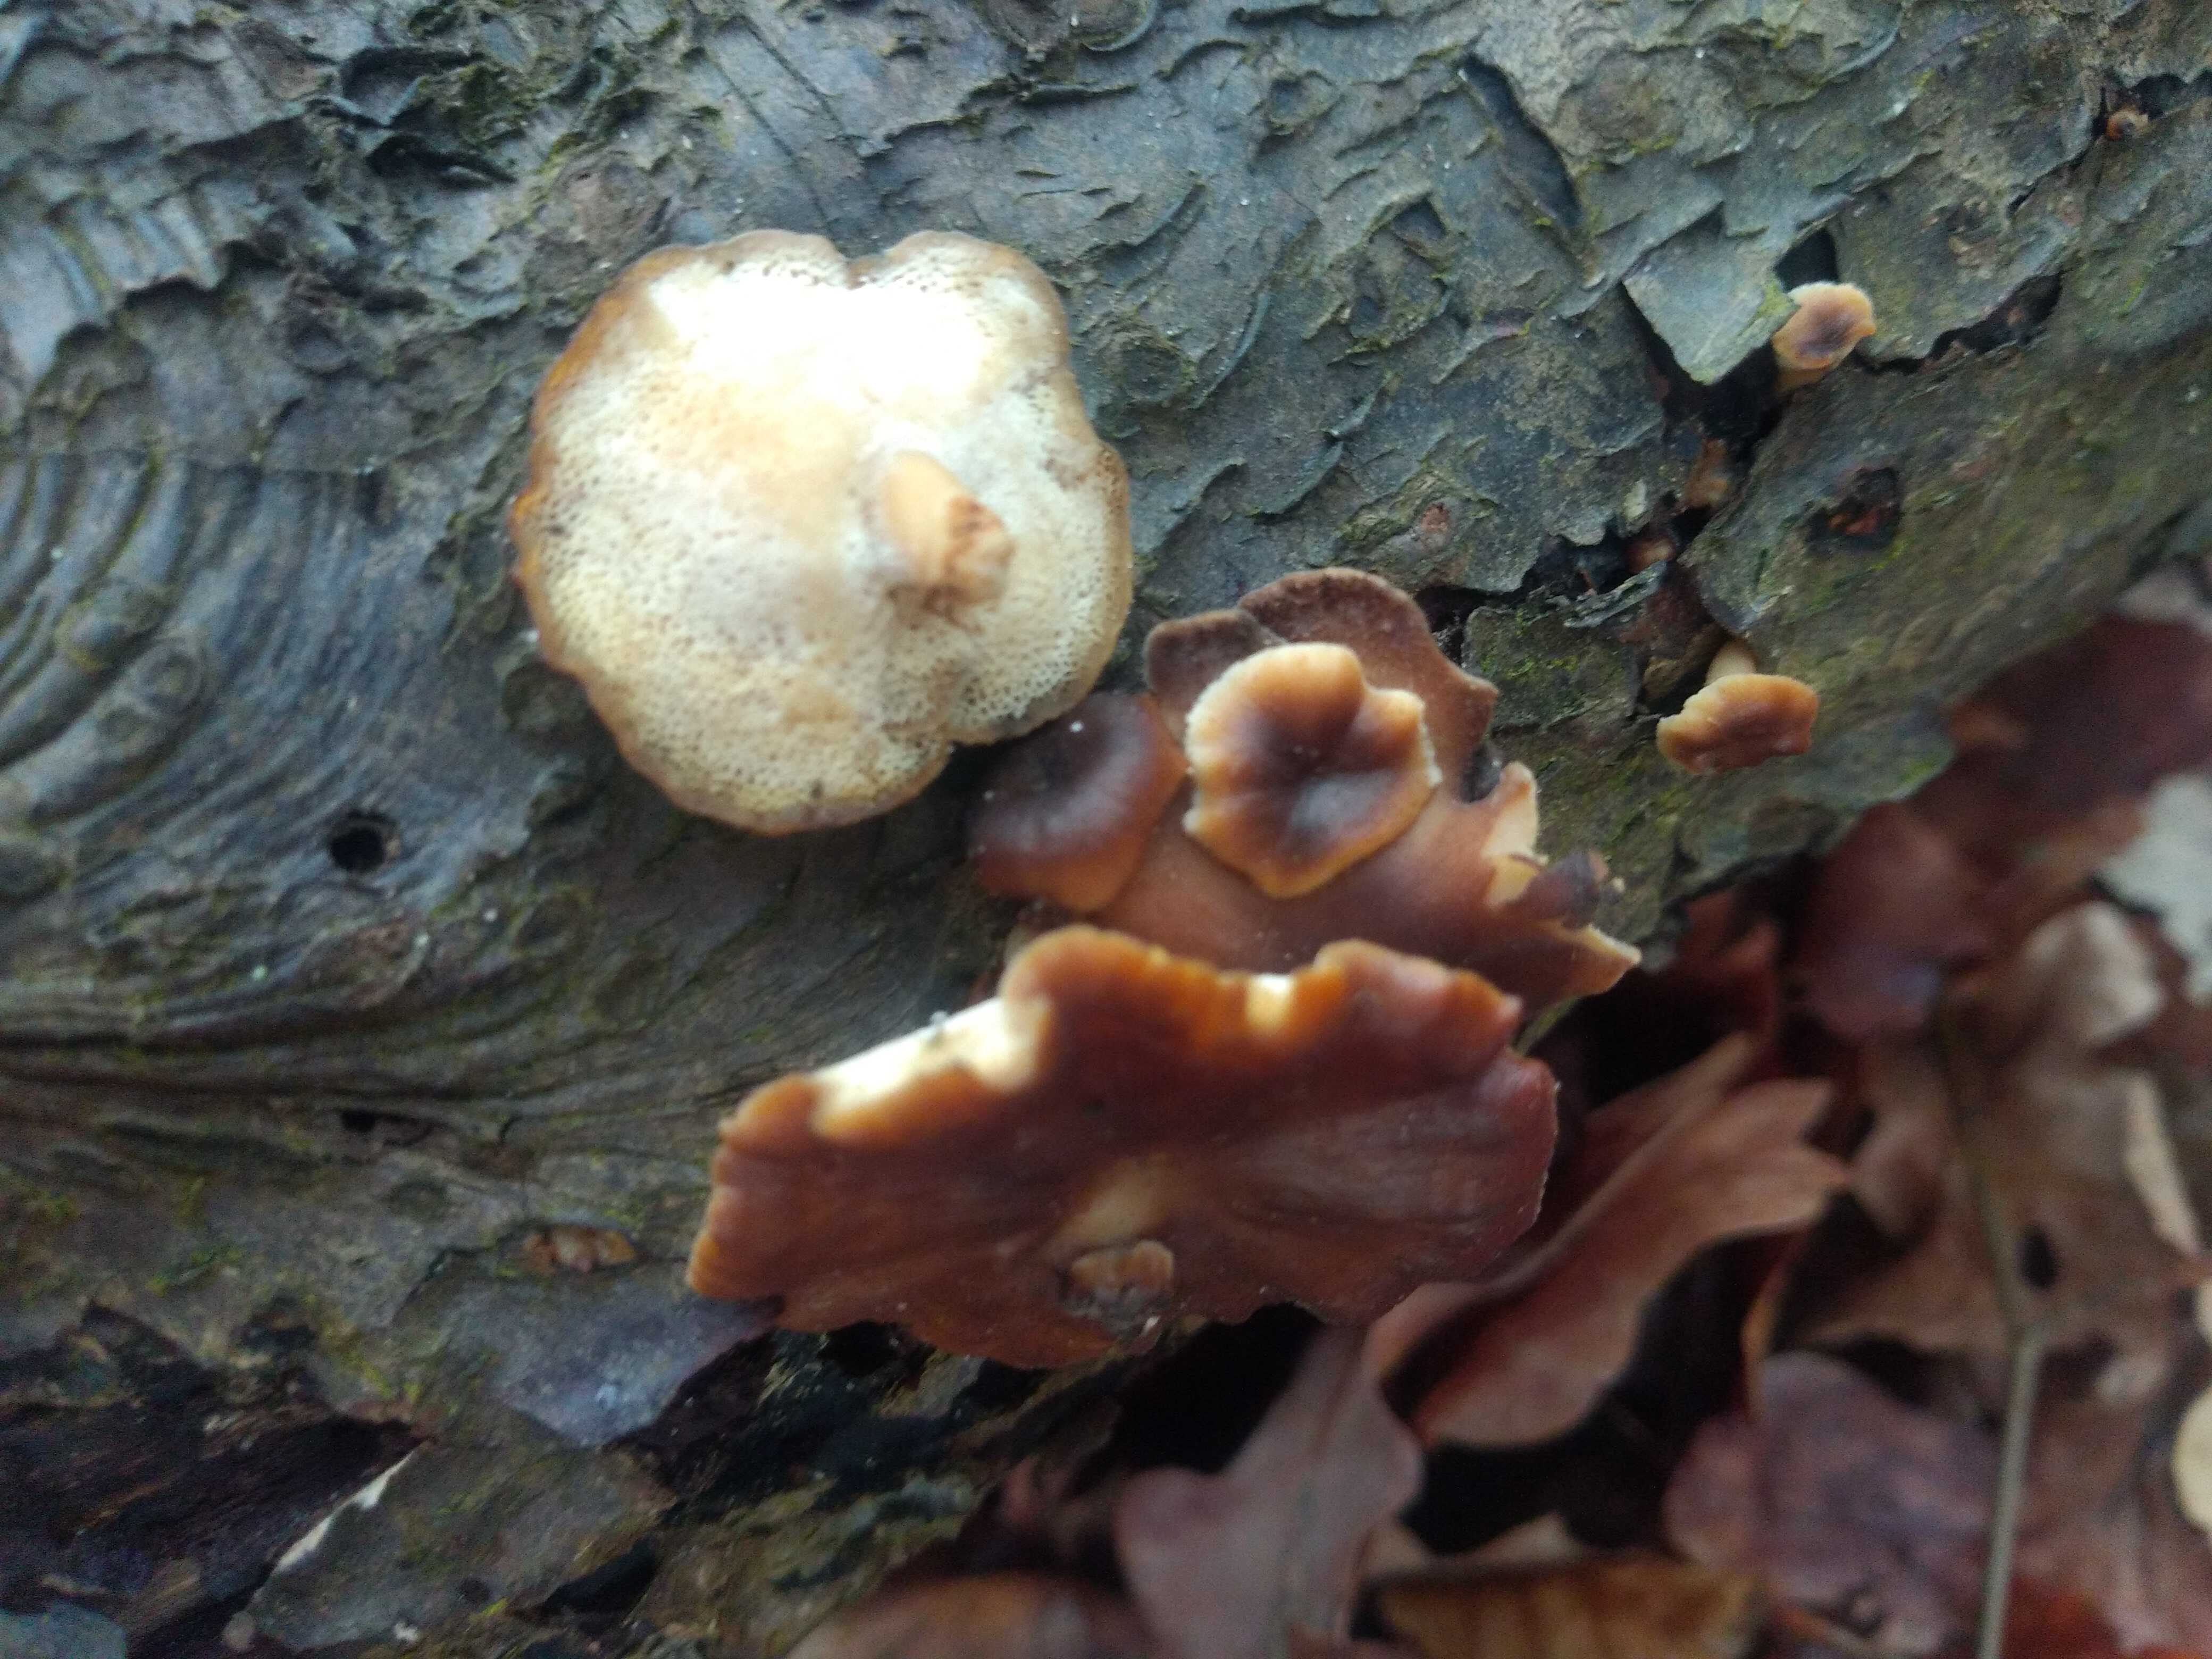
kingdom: Fungi
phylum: Basidiomycota
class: Agaricomycetes
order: Polyporales
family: Polyporaceae
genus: Lentinus
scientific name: Lentinus brumalis
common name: vinter-stilkporesvamp
